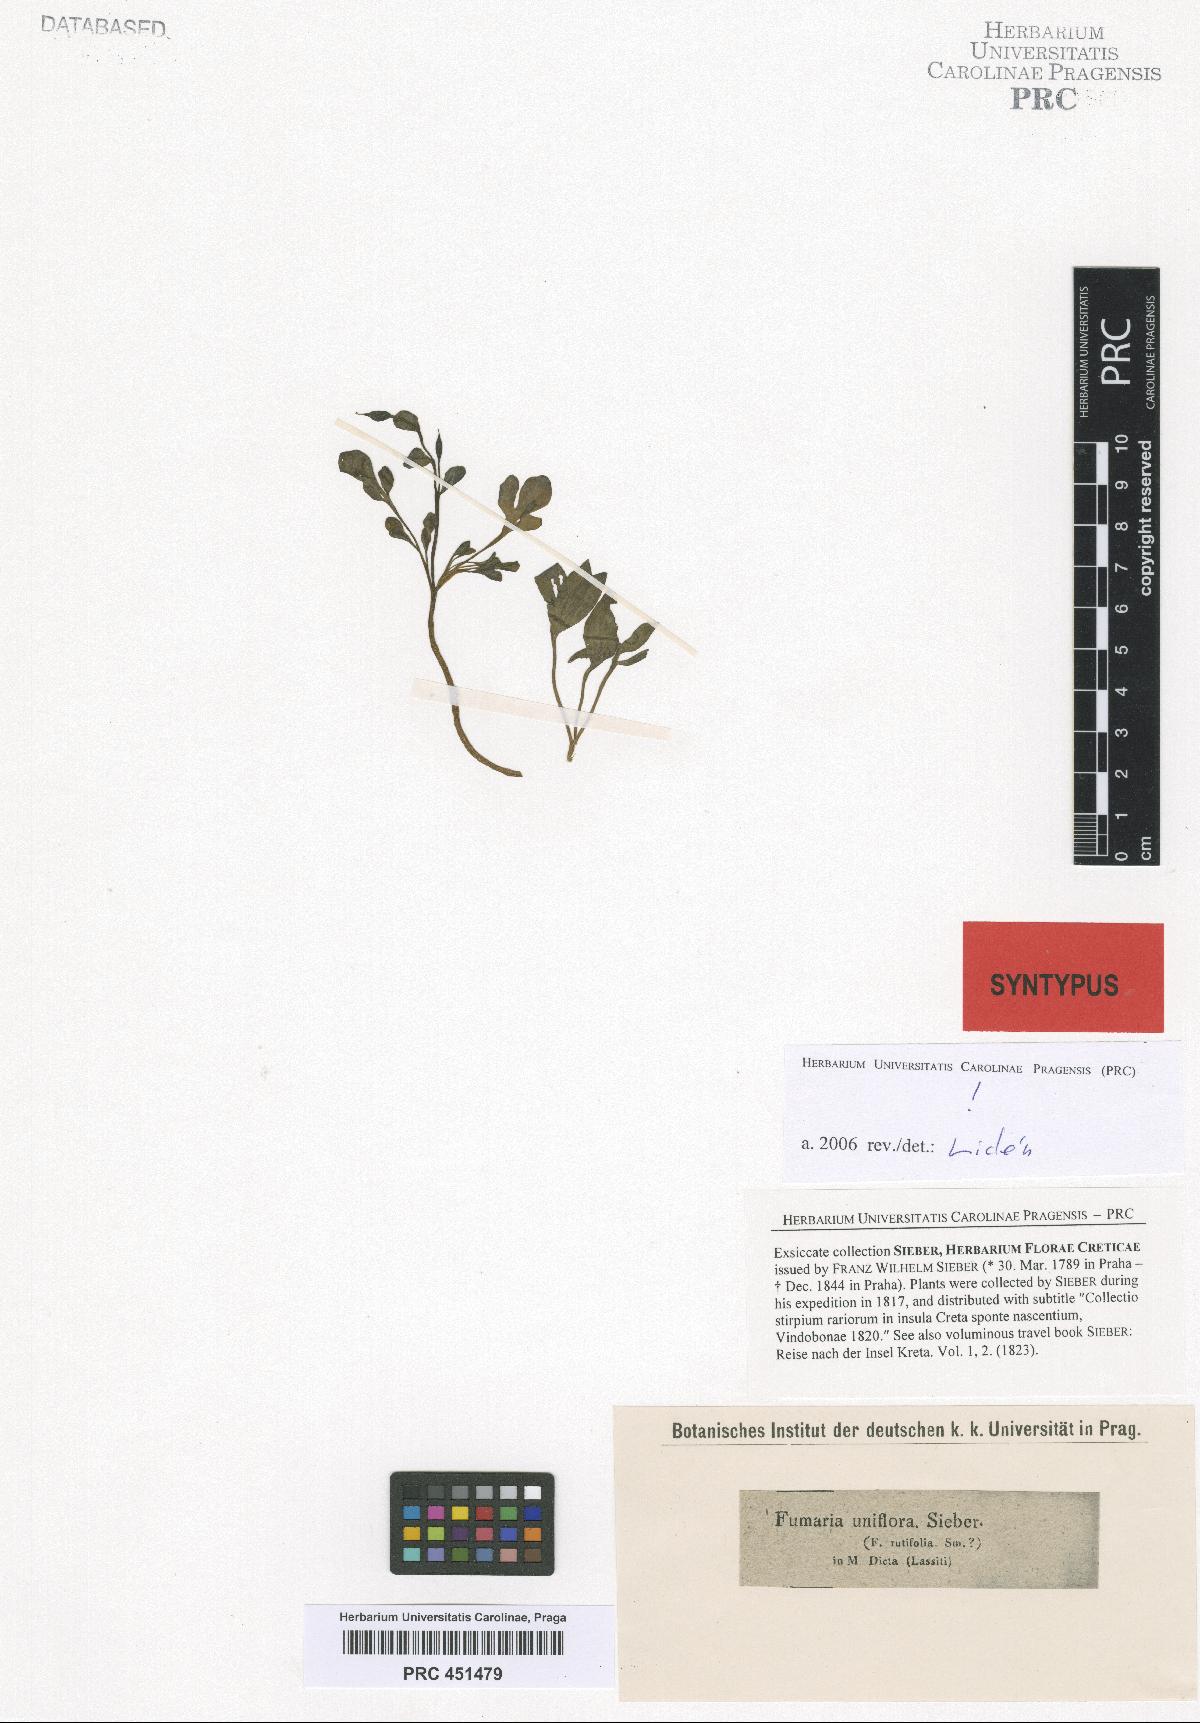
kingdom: Plantae
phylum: Tracheophyta
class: Magnoliopsida
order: Ranunculales
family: Papaveraceae
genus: Corydalis
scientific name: Corydalis uniflora
